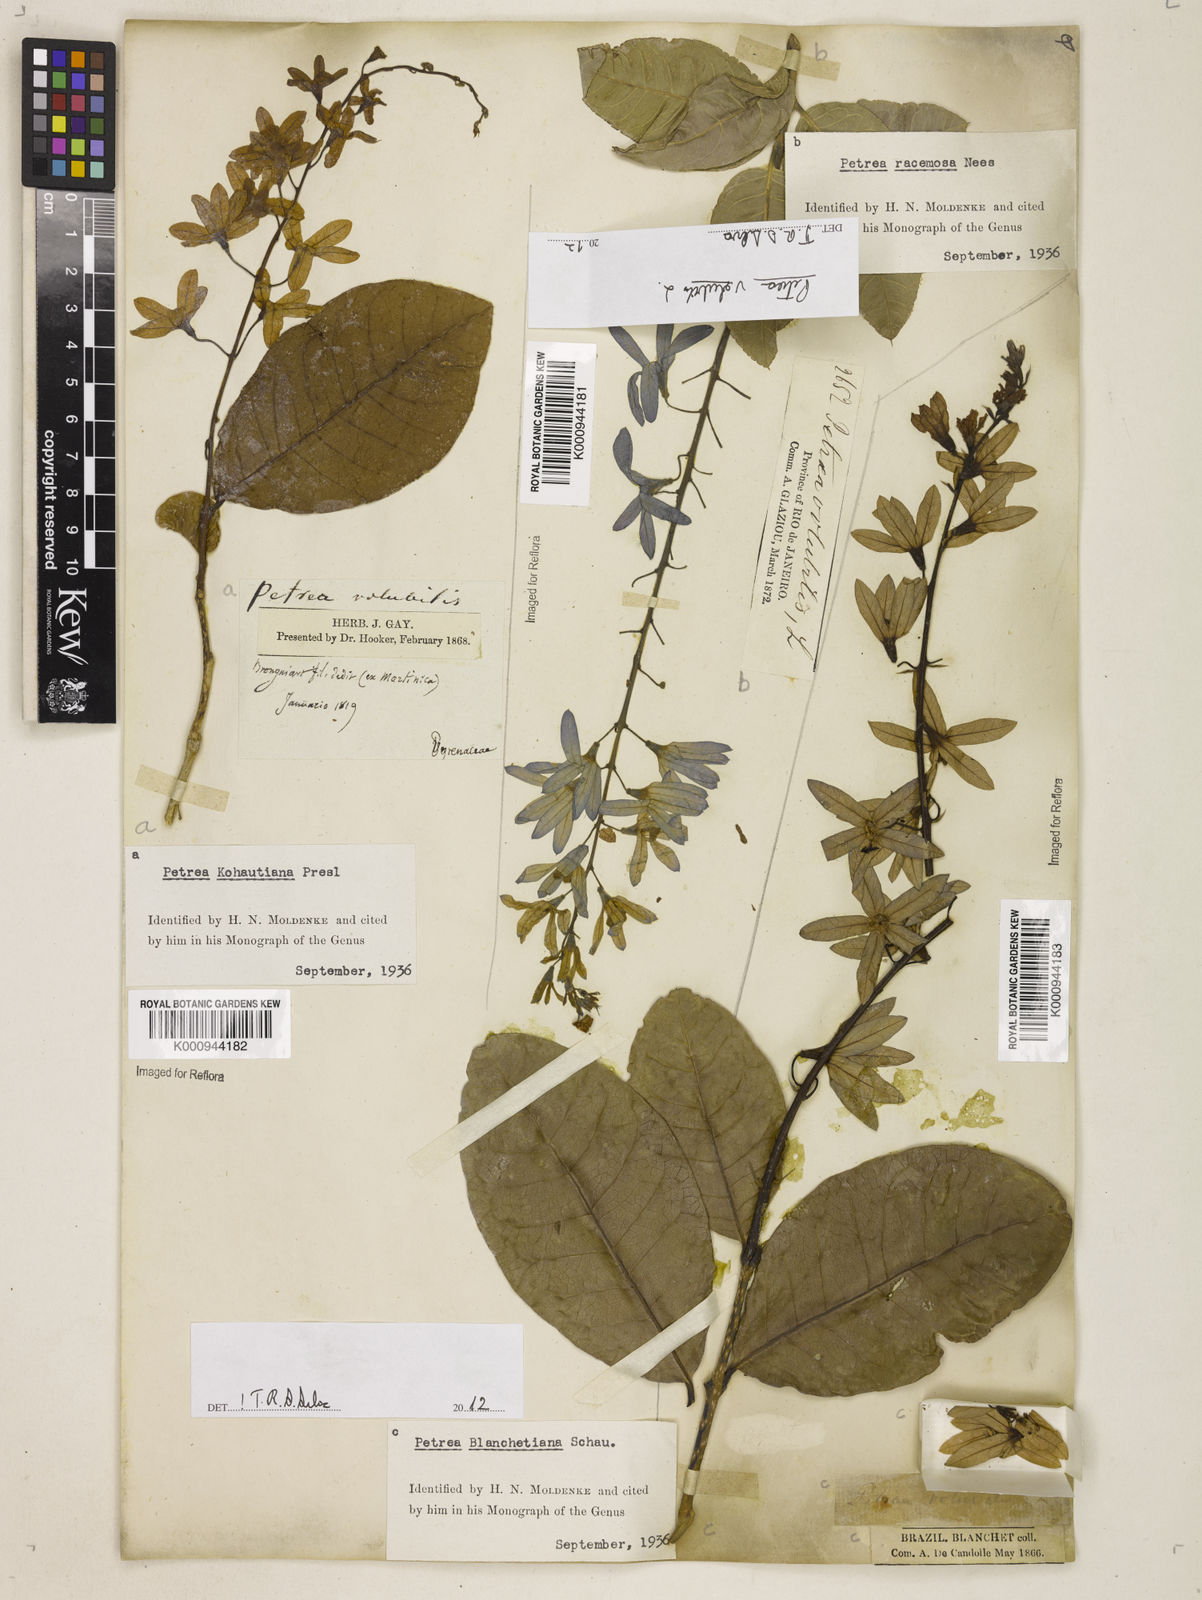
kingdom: Plantae
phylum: Tracheophyta
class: Magnoliopsida
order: Lamiales
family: Verbenaceae
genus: Petrea
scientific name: Petrea bracteata
